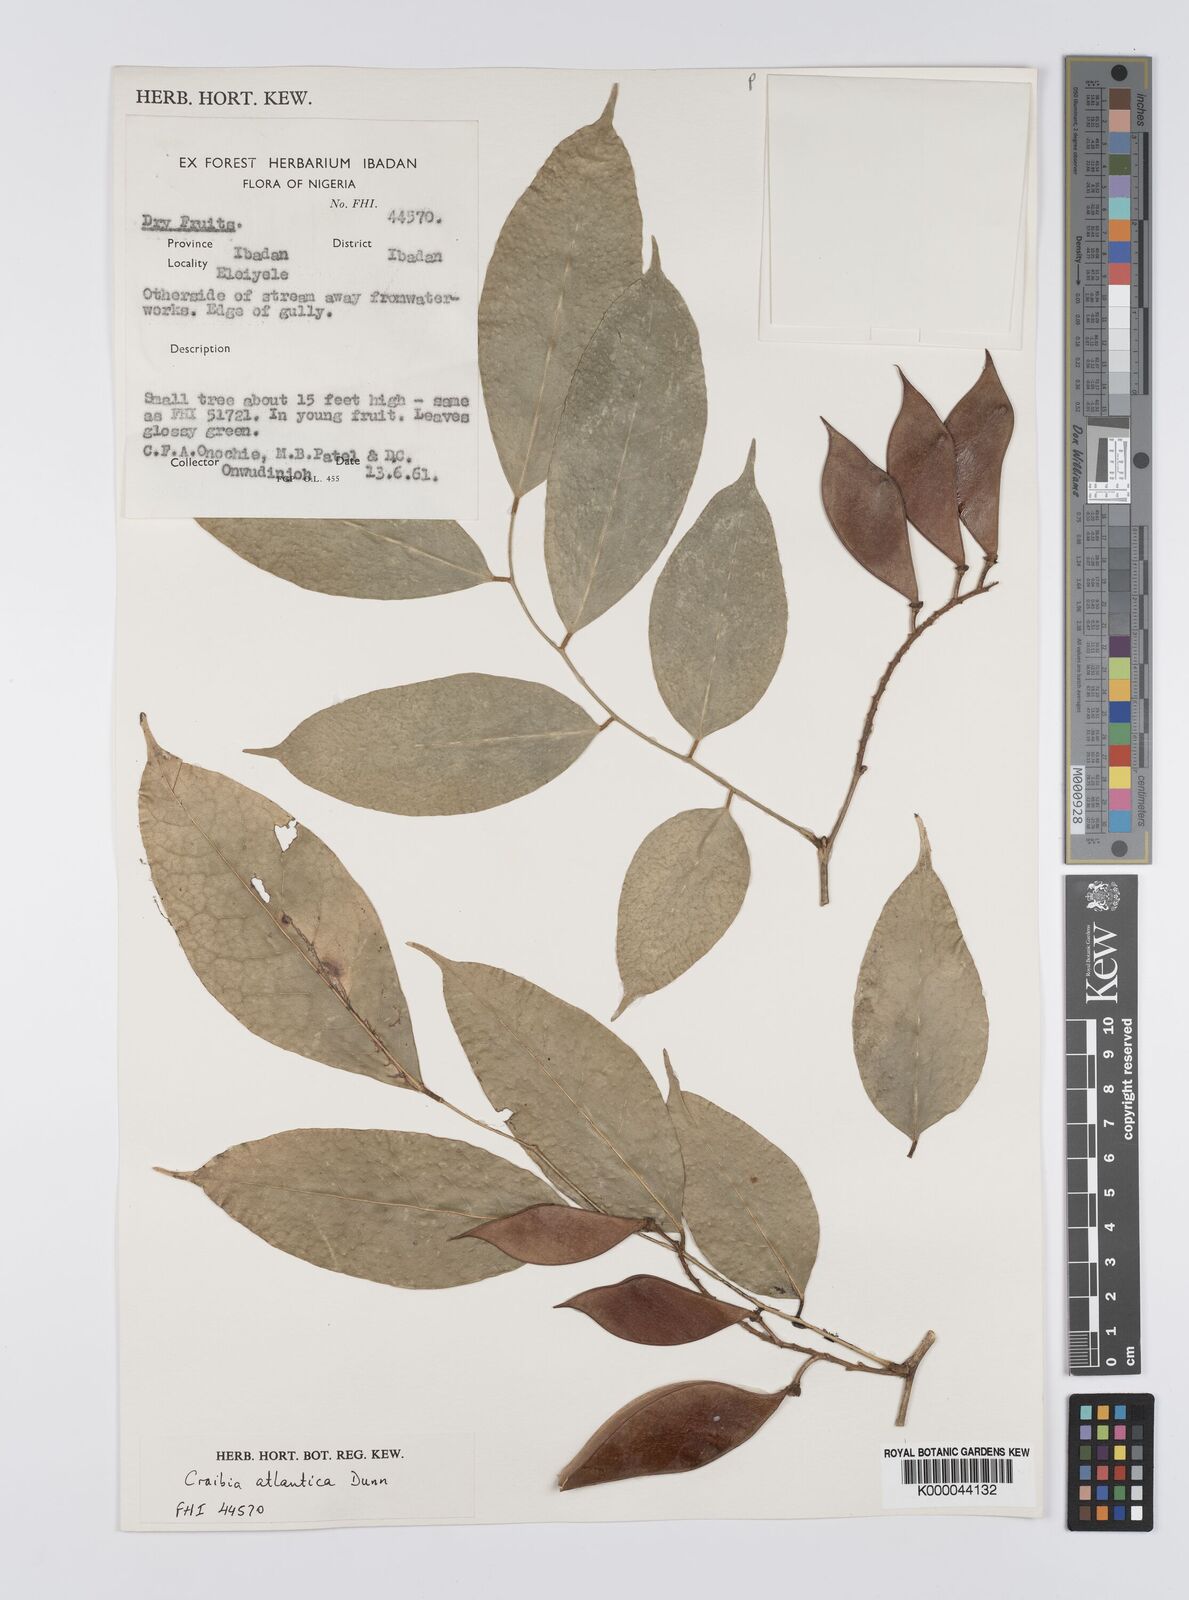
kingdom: Plantae
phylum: Tracheophyta
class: Magnoliopsida
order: Fabales
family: Fabaceae
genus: Craibia
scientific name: Craibia atlantica
